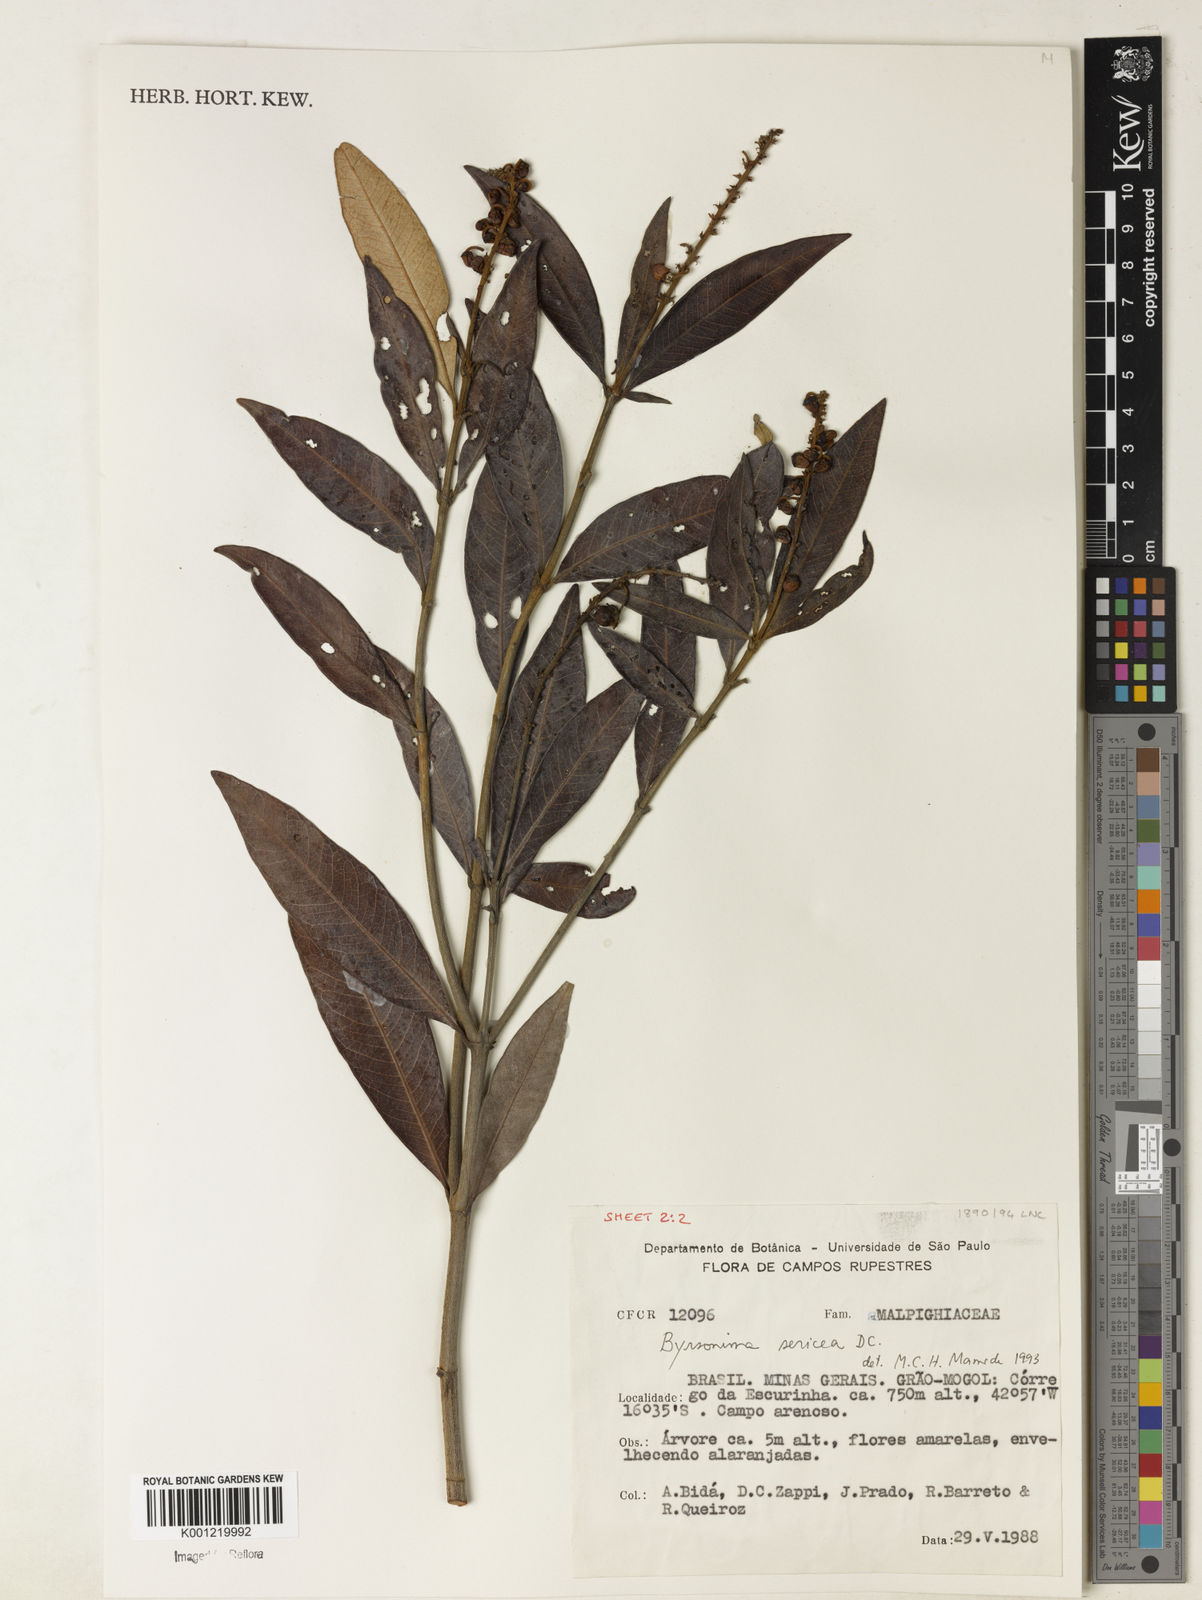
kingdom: Plantae
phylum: Tracheophyta
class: Magnoliopsida
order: Malpighiales
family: Malpighiaceae
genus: Byrsonima
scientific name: Byrsonima sericea
